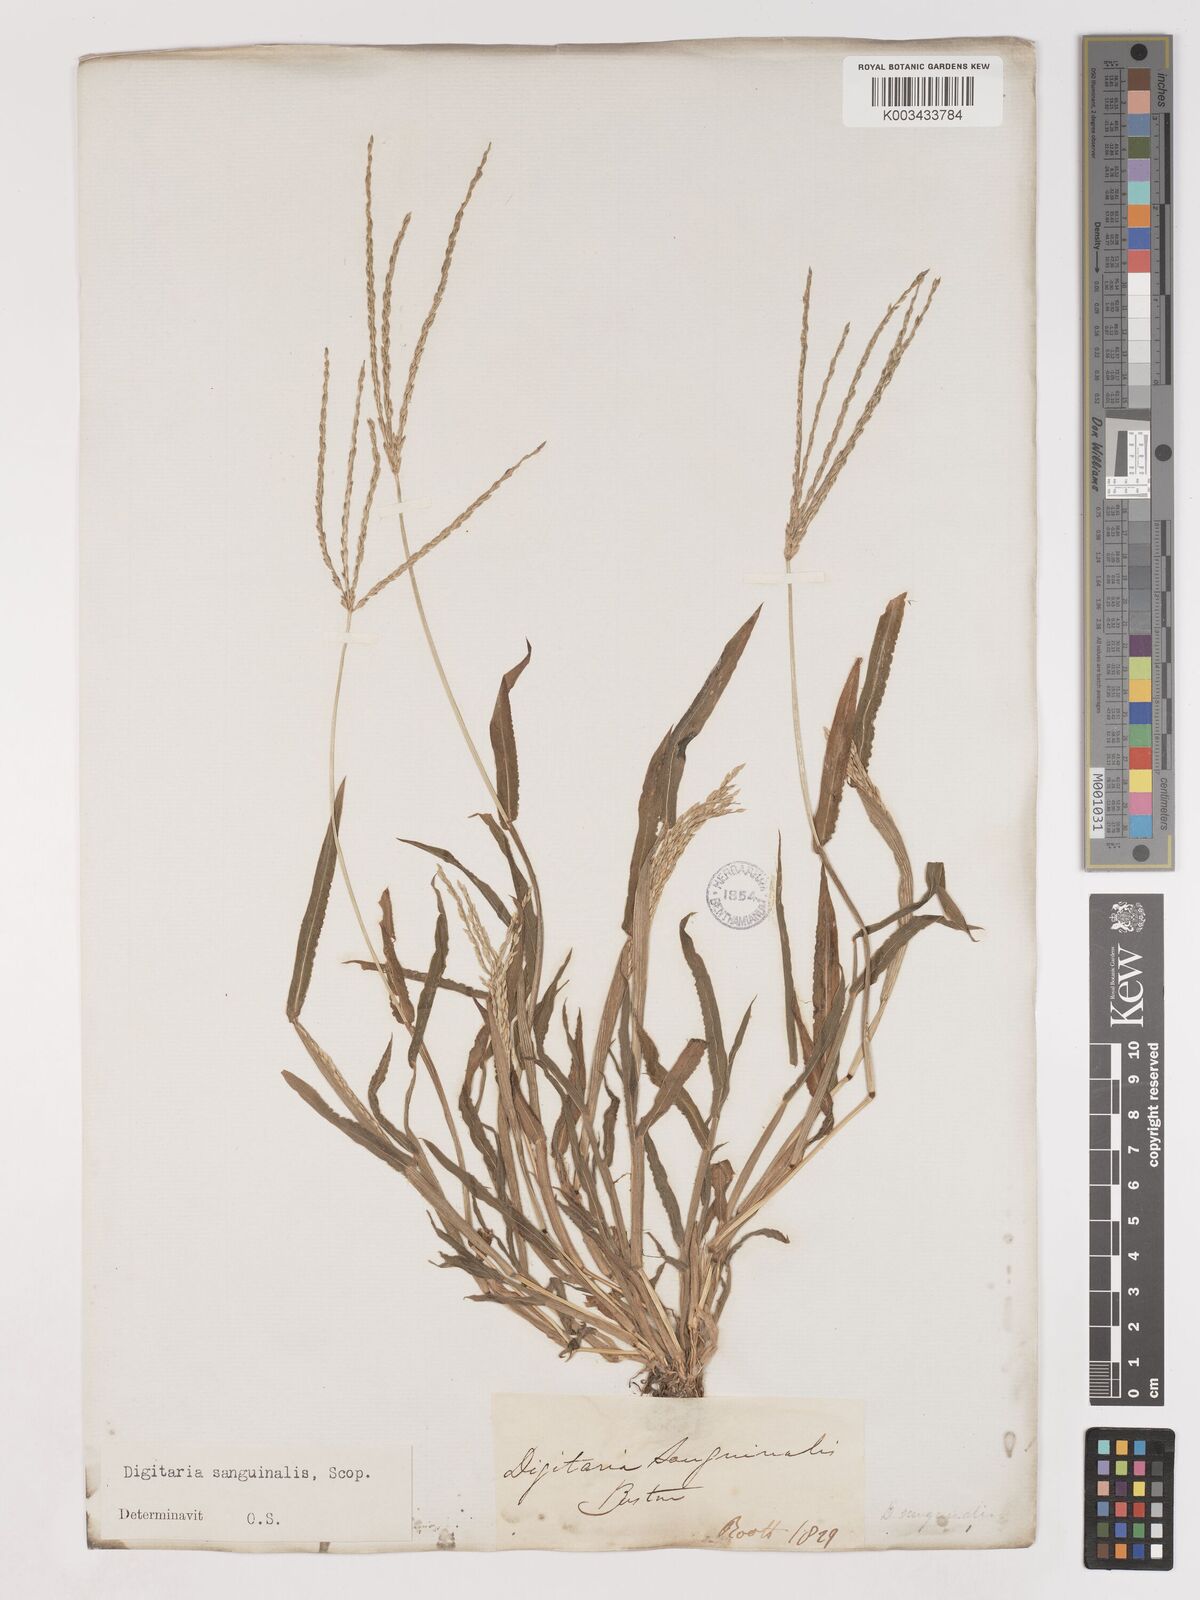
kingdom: Plantae
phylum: Tracheophyta
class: Liliopsida
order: Poales
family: Poaceae
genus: Digitaria
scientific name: Digitaria sanguinalis
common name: Hairy crabgrass
